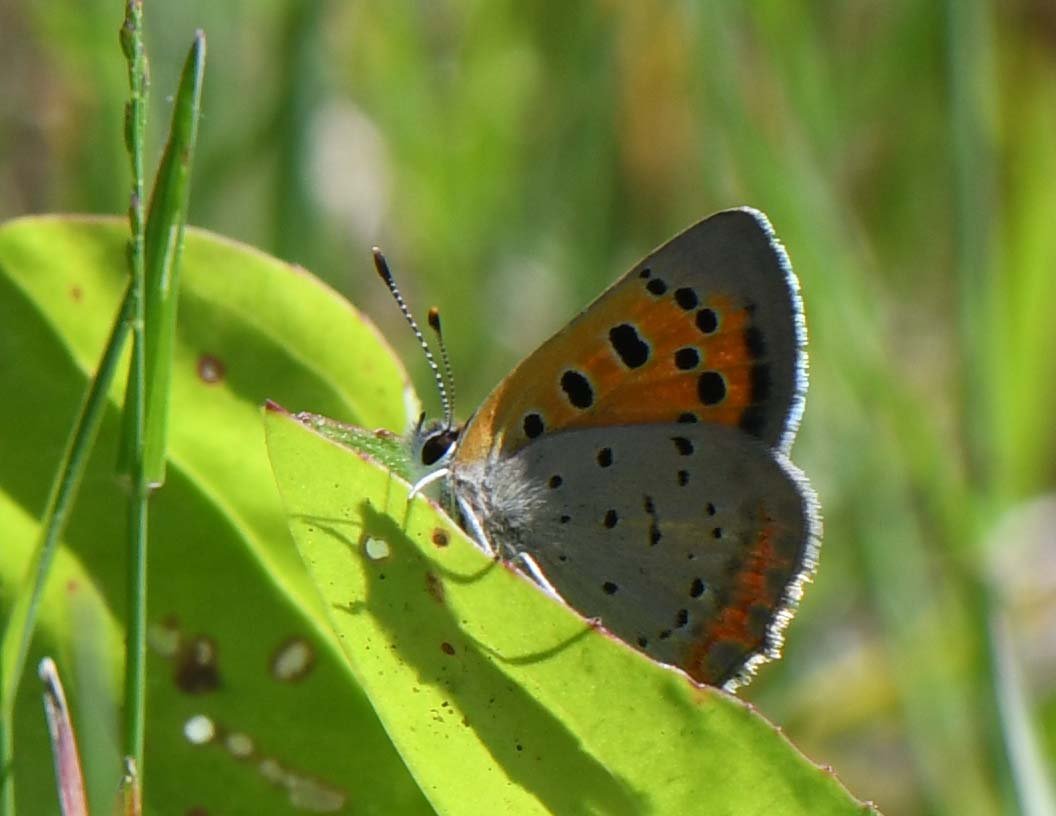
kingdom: Animalia
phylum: Arthropoda
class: Insecta
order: Lepidoptera
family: Lycaenidae
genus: Lycaena
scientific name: Lycaena phlaeas
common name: American Copper
